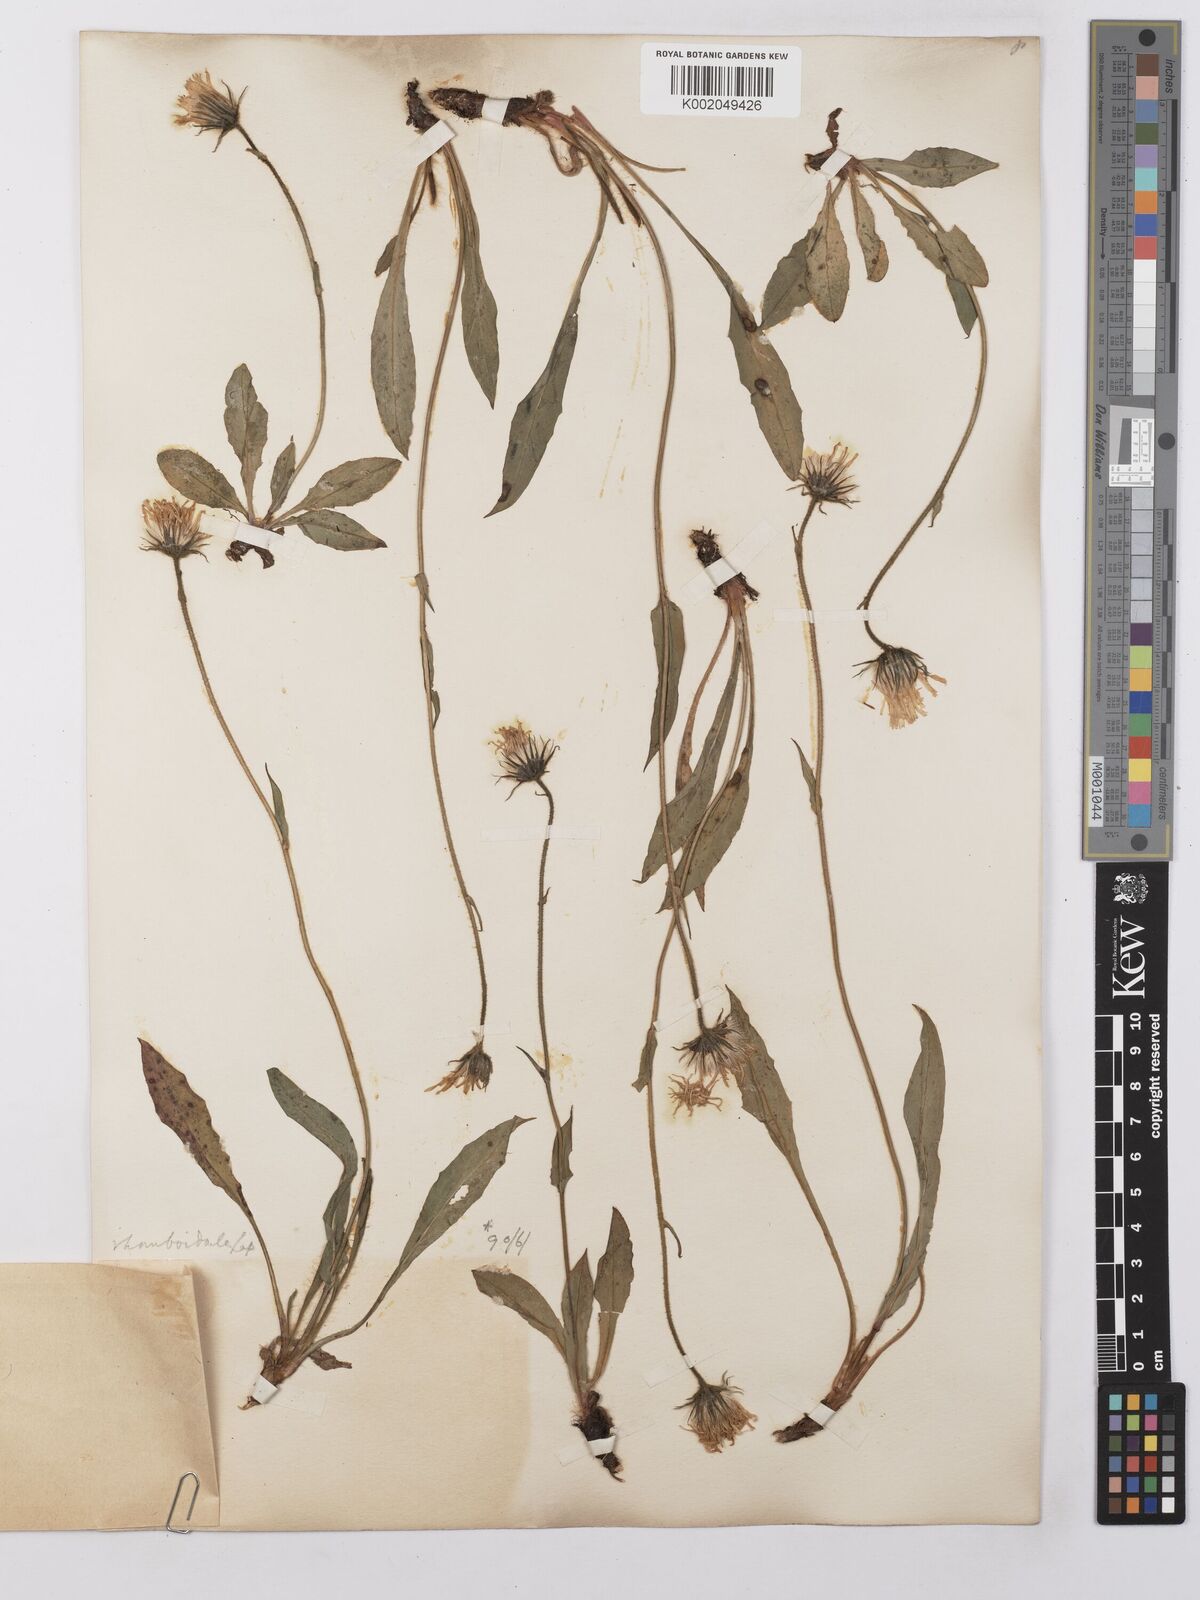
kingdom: Plantae
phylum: Tracheophyta
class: Magnoliopsida
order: Asterales
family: Asteraceae
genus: Hieracium
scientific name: Hieracium cerinthoides
